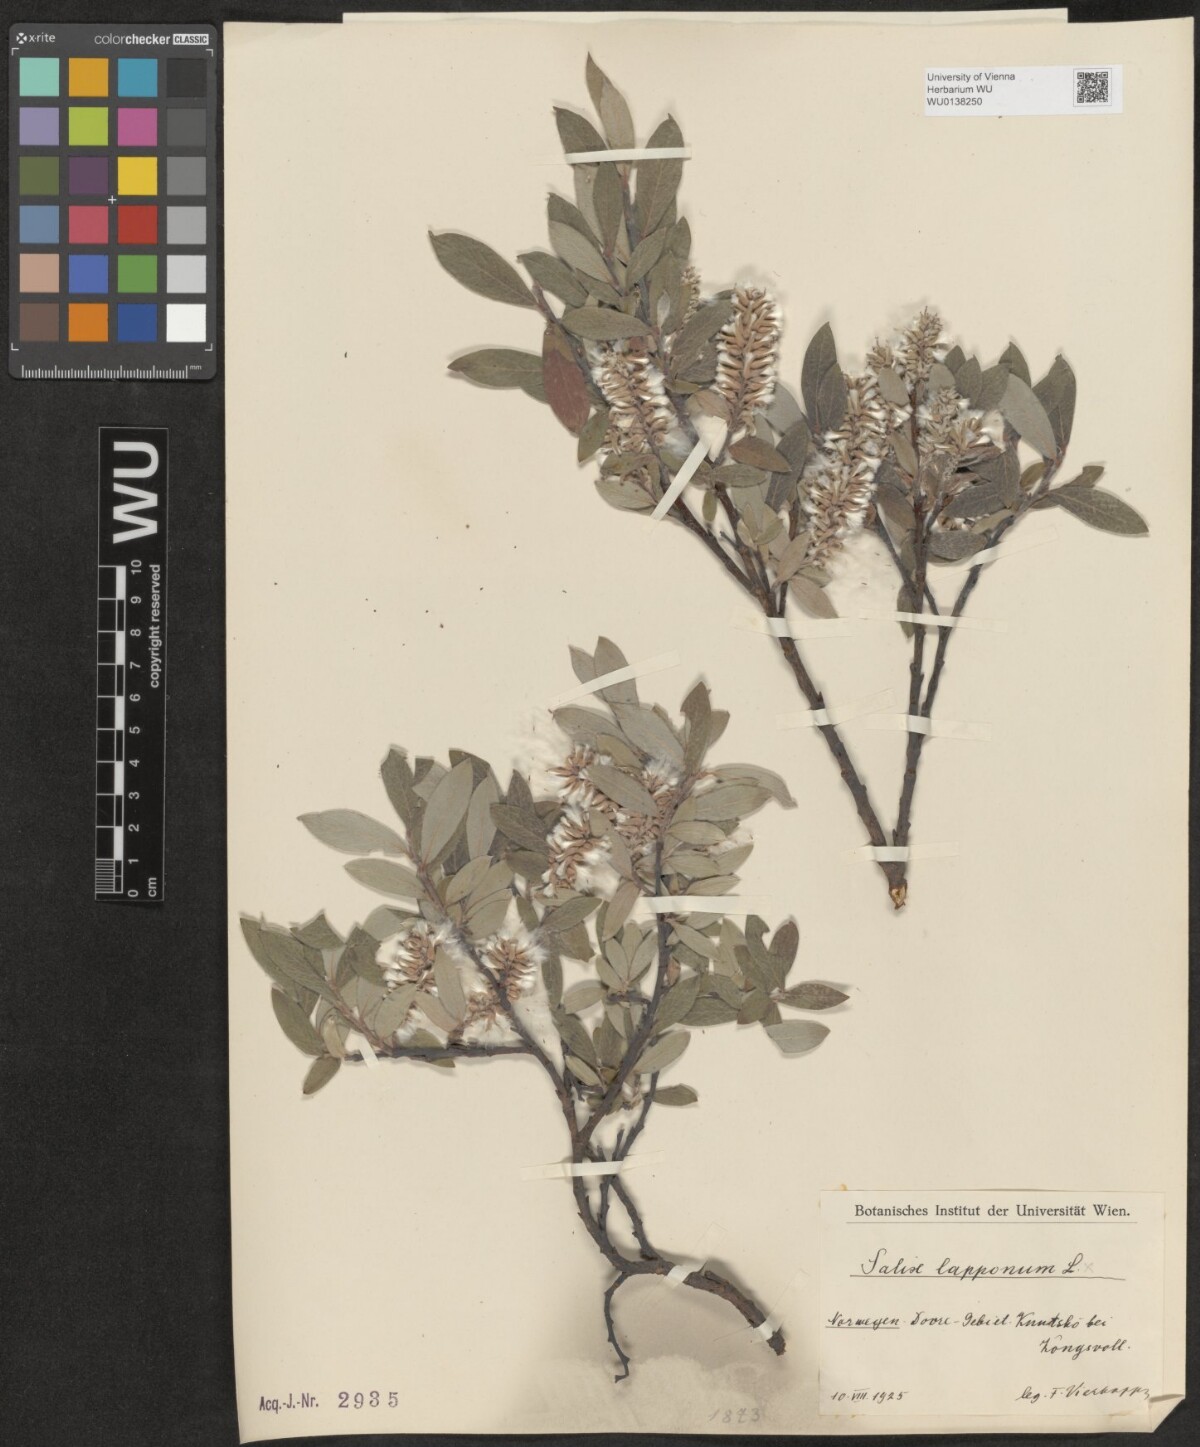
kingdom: Plantae
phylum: Tracheophyta
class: Magnoliopsida
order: Malpighiales
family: Salicaceae
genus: Salix
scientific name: Salix lapponum
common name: Downy willow
